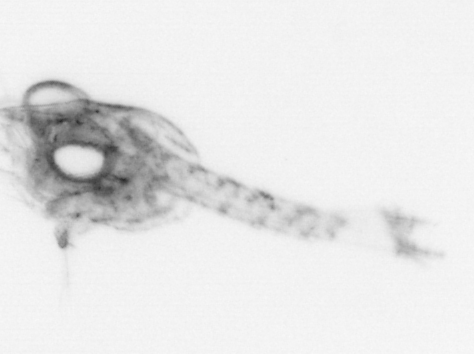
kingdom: Animalia
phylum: Arthropoda
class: Malacostraca
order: Decapoda
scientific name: Decapoda
